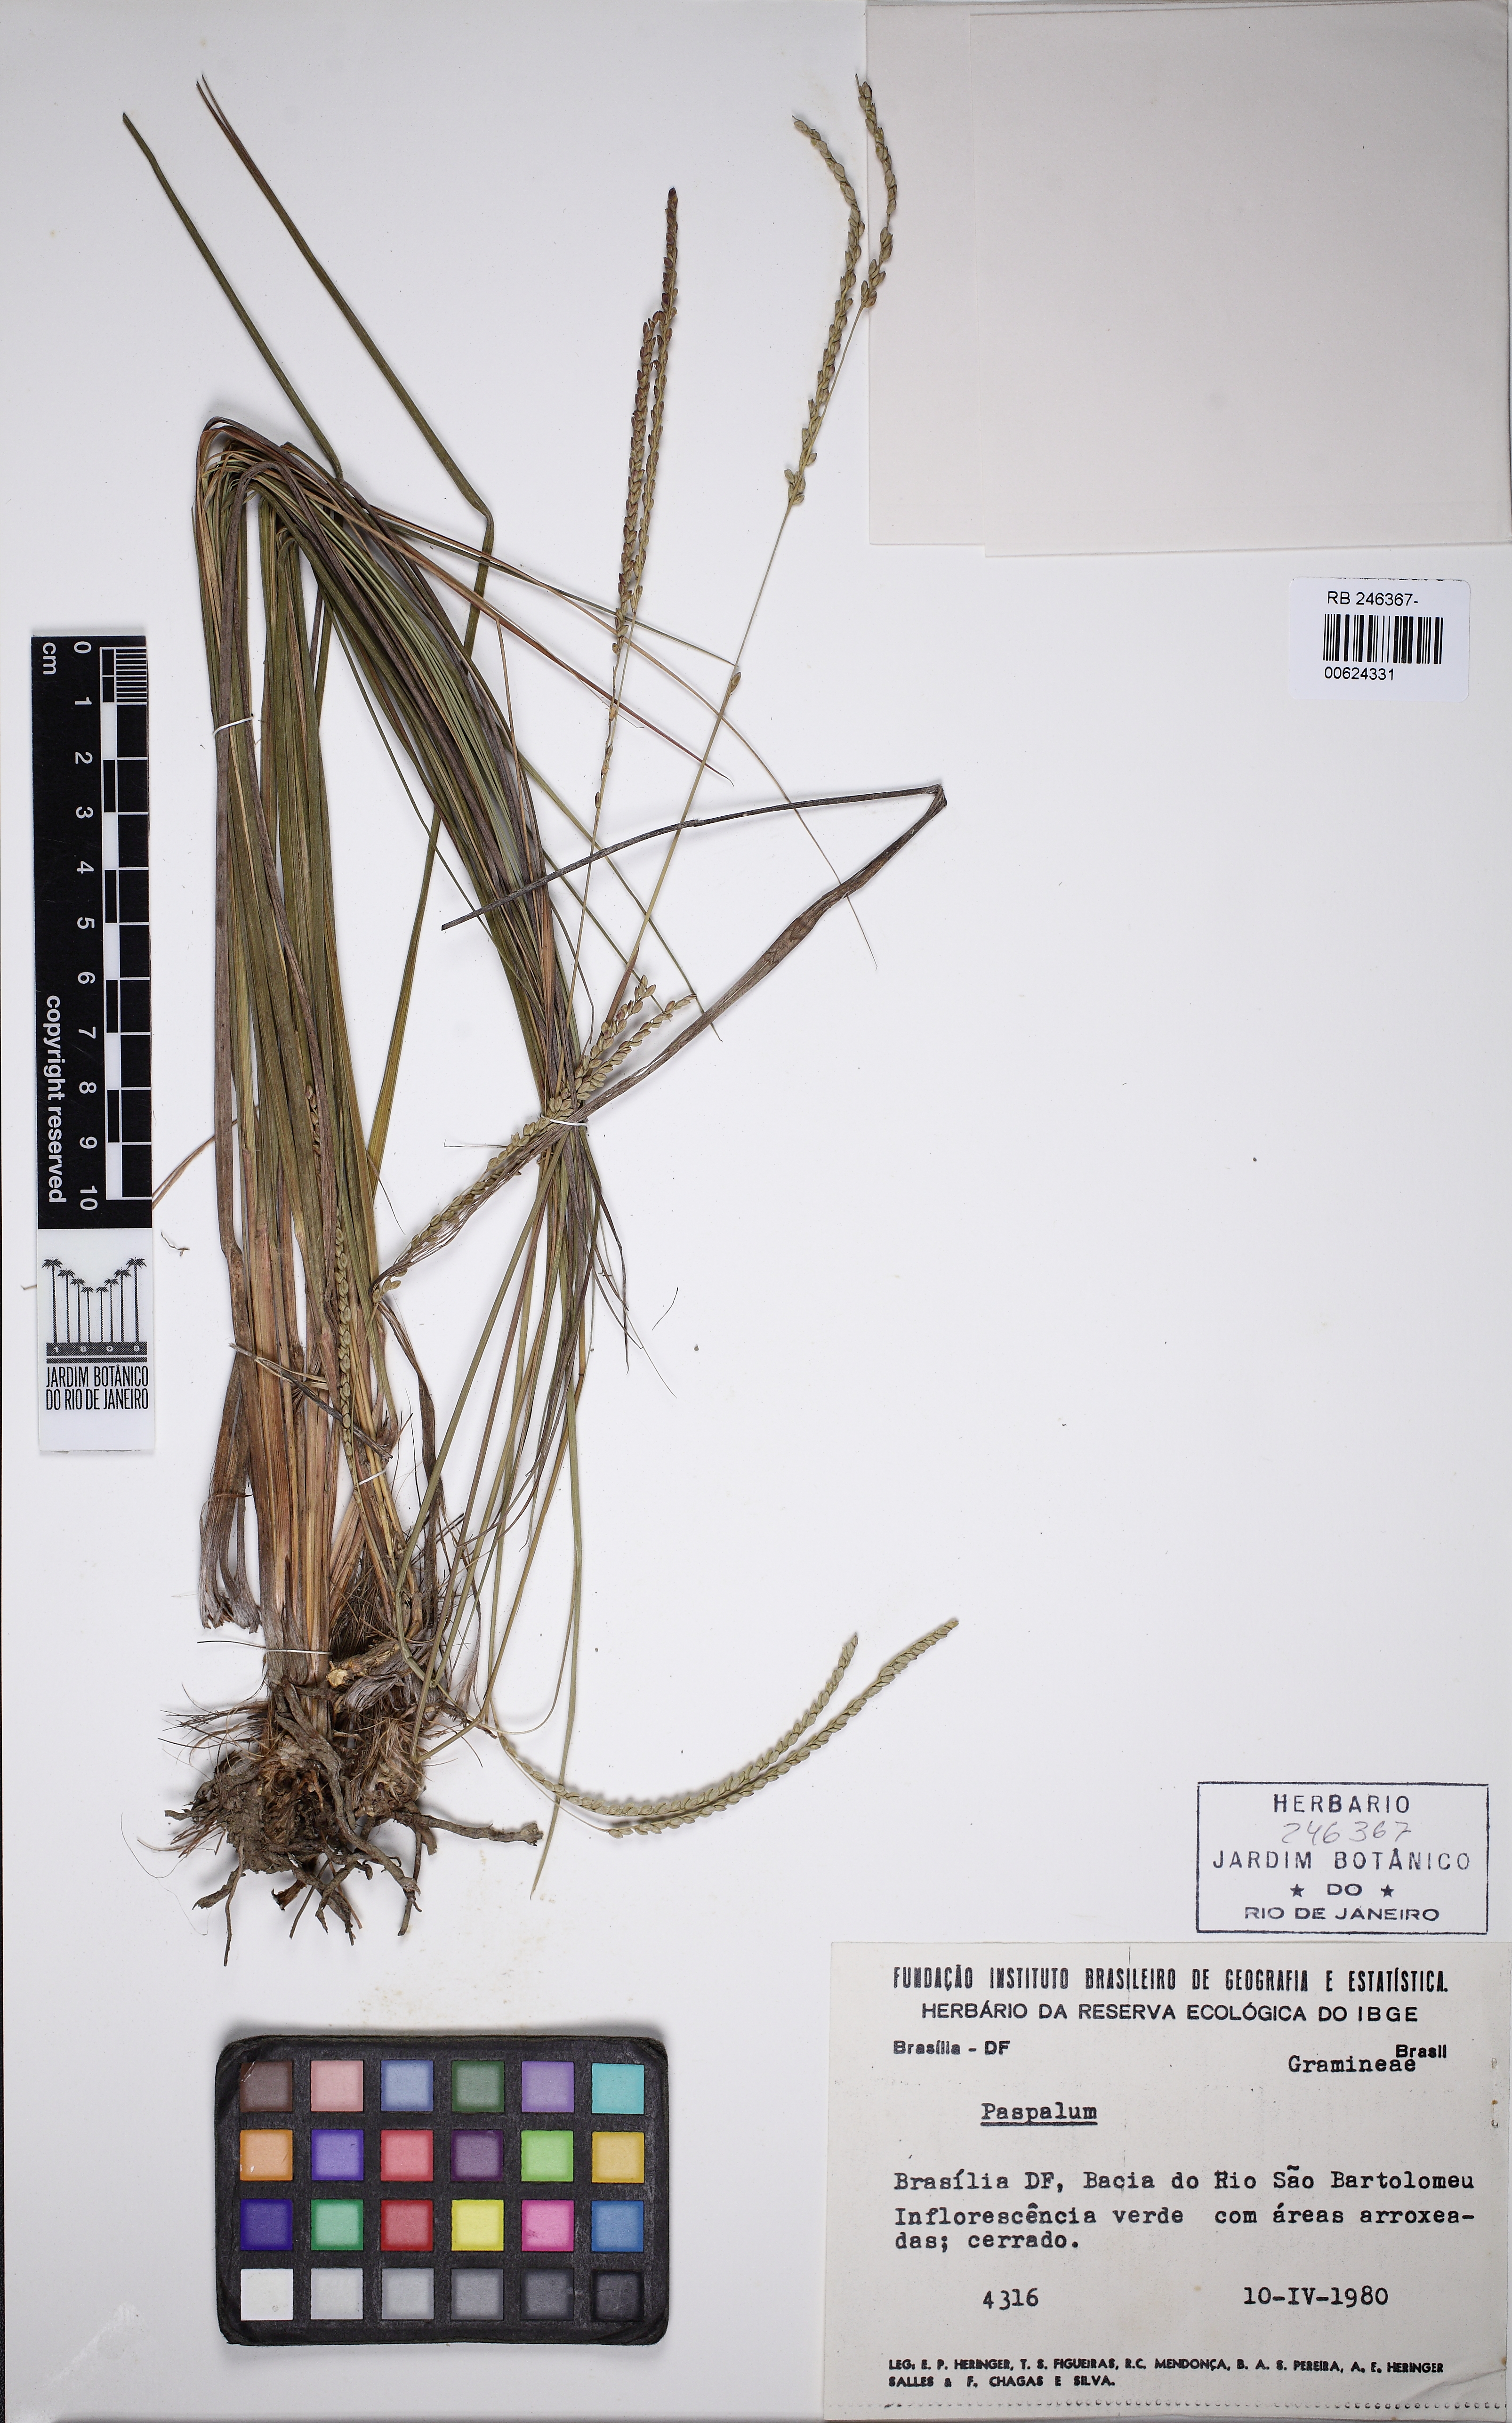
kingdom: Plantae
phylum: Tracheophyta
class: Liliopsida
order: Poales
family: Poaceae
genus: Paspalum
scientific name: Paspalum
